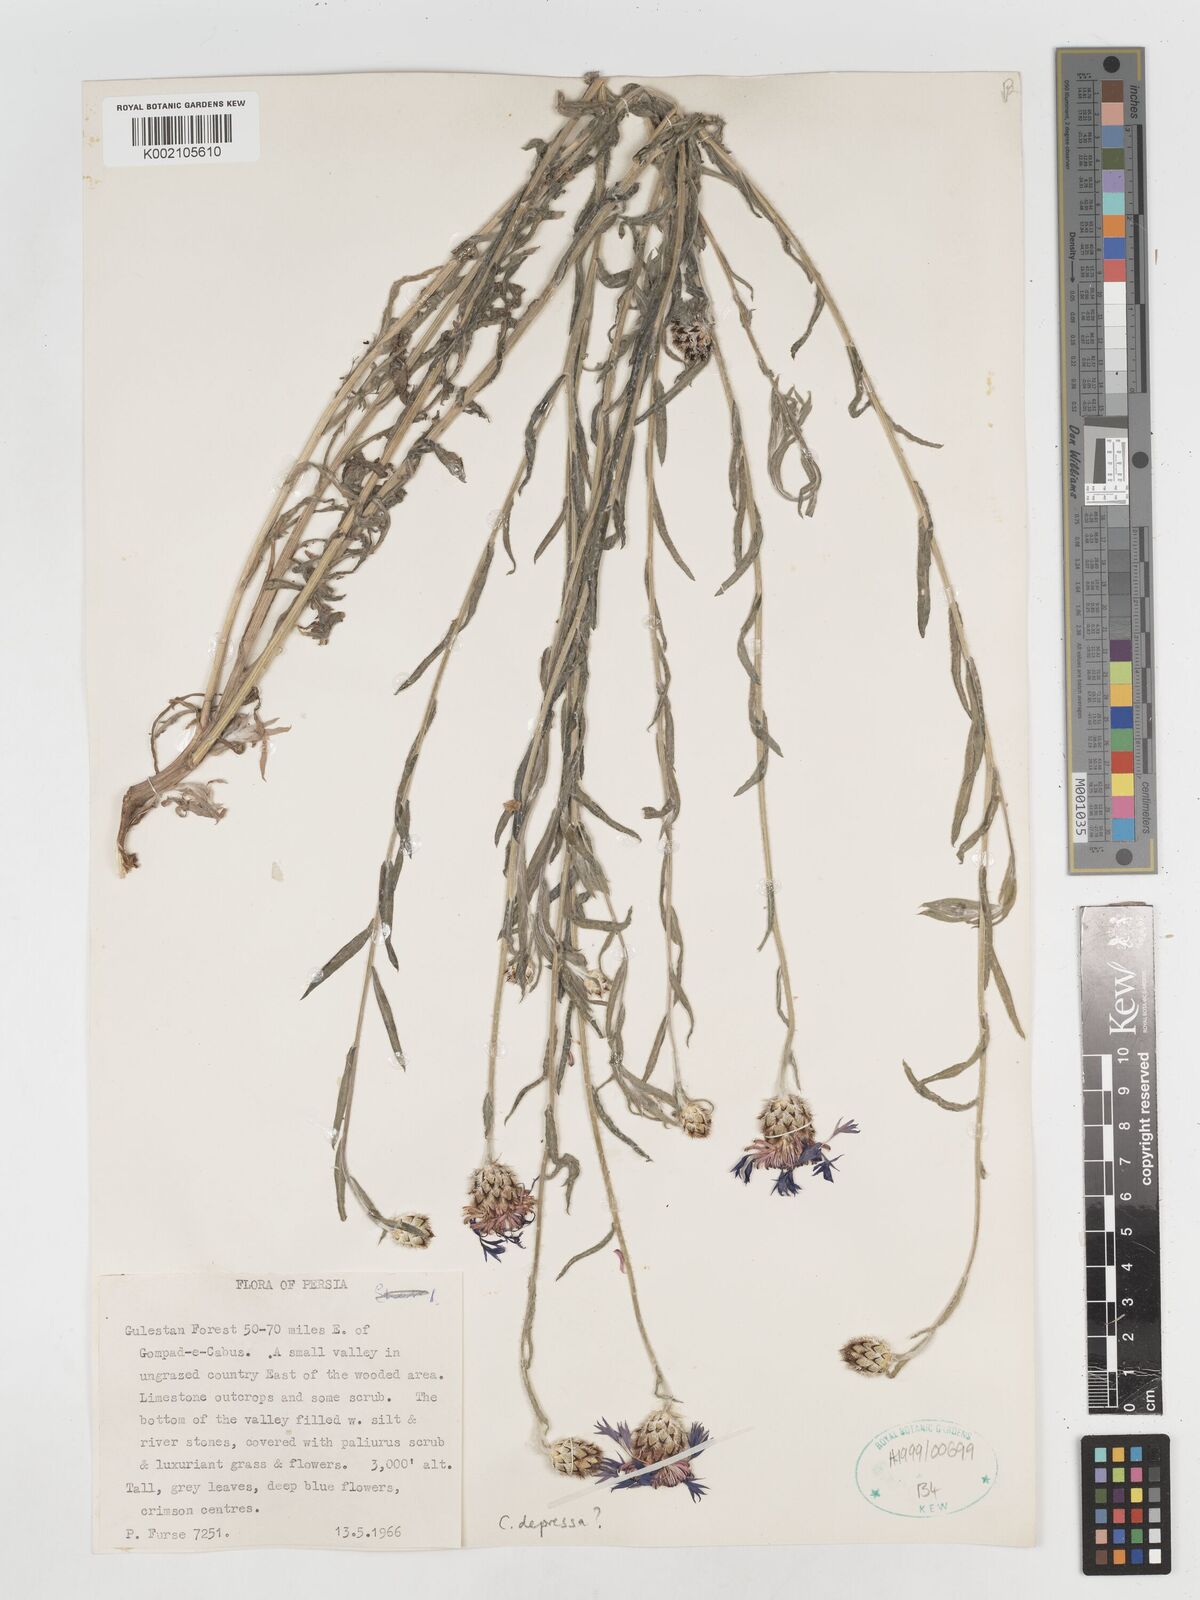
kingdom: Plantae
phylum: Tracheophyta
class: Magnoliopsida
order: Asterales
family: Asteraceae
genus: Centaurea
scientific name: Centaurea depressa
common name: Iranian knapweed
